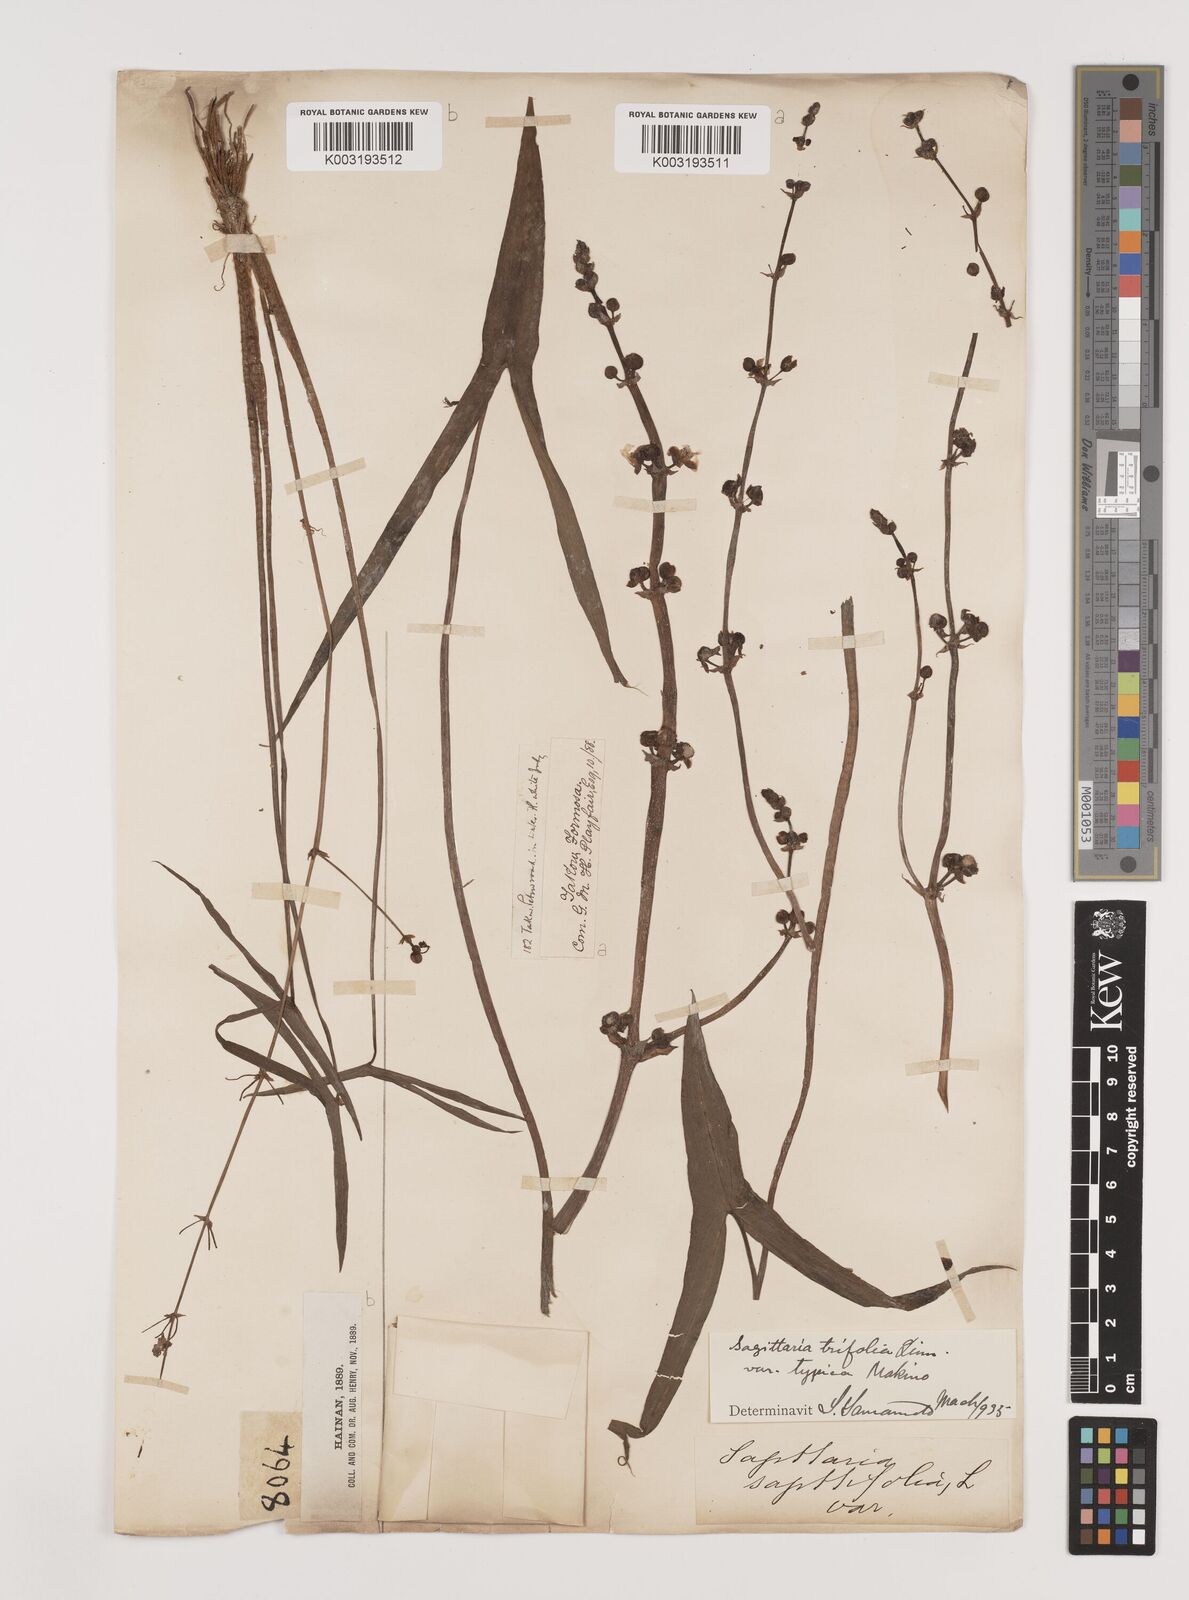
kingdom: Plantae
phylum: Tracheophyta
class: Liliopsida
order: Alismatales
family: Alismataceae
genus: Sagittaria
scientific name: Sagittaria sagittifolia
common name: Arrowhead
